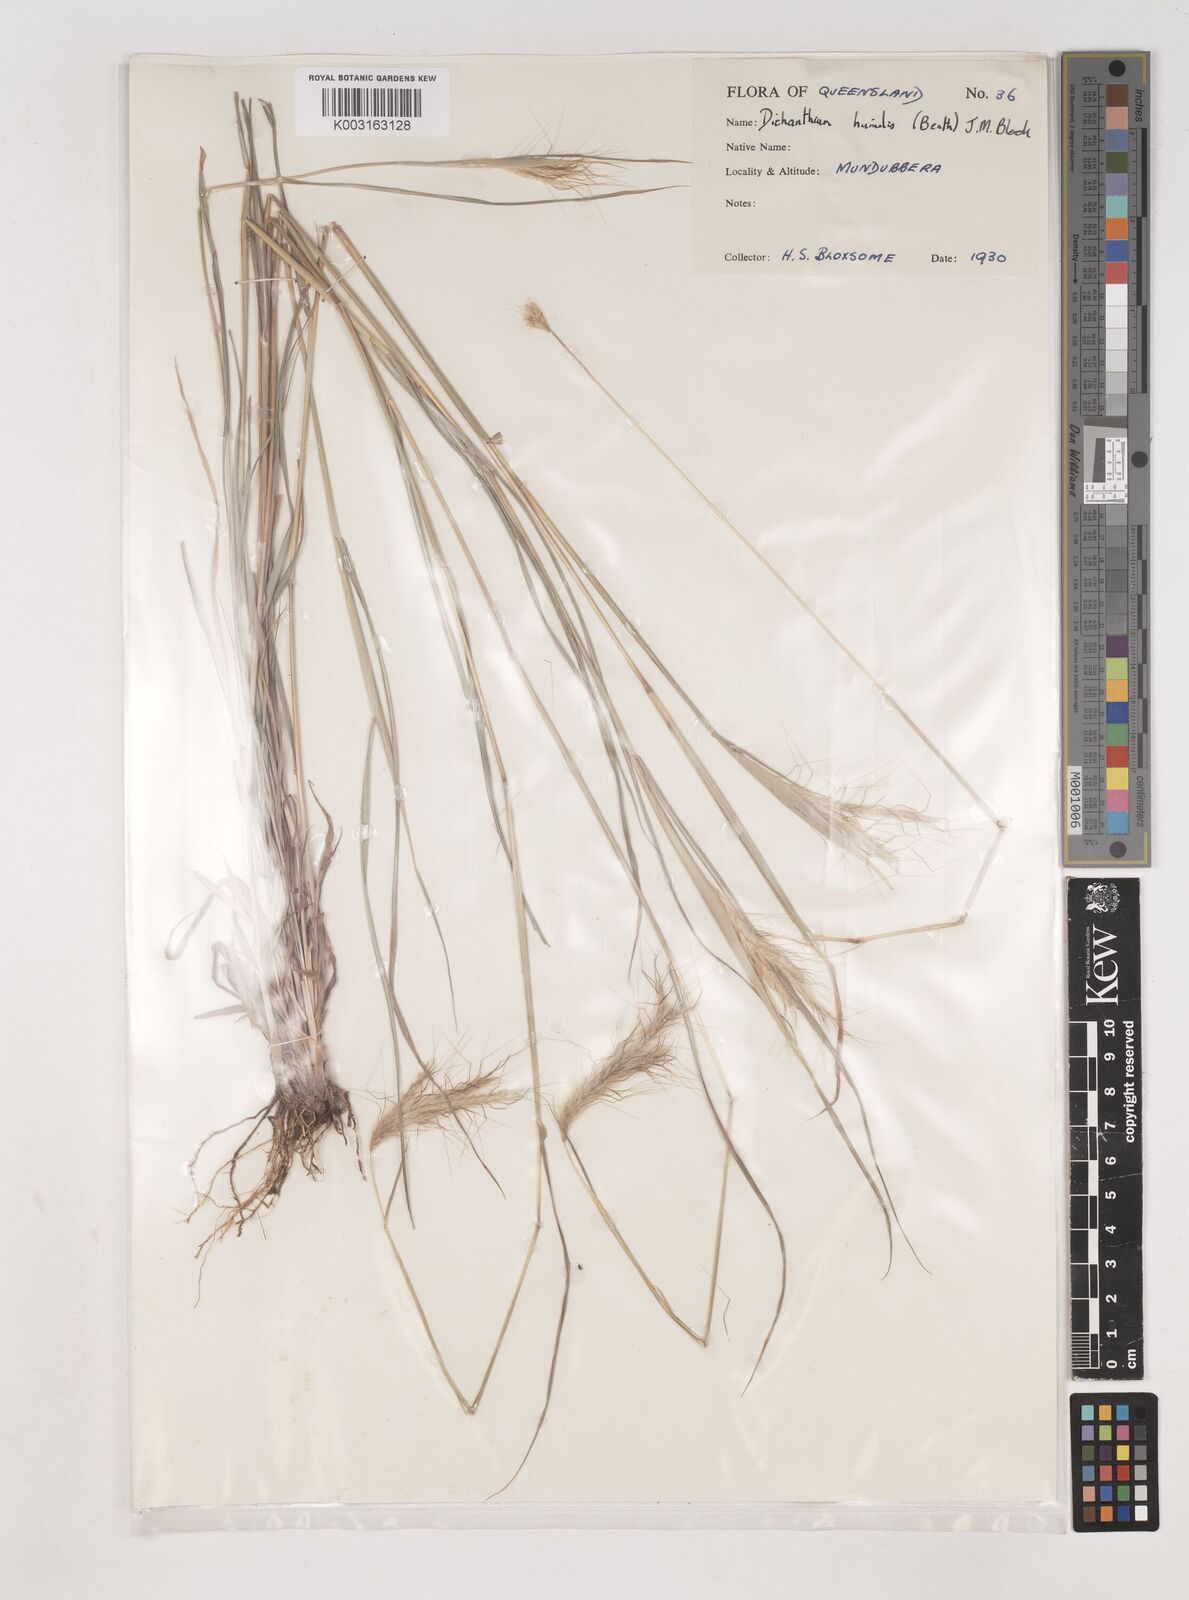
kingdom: Plantae
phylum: Tracheophyta
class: Liliopsida
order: Poales
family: Poaceae
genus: Dichanthium
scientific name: Dichanthium sericeum
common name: Silky bluestem
